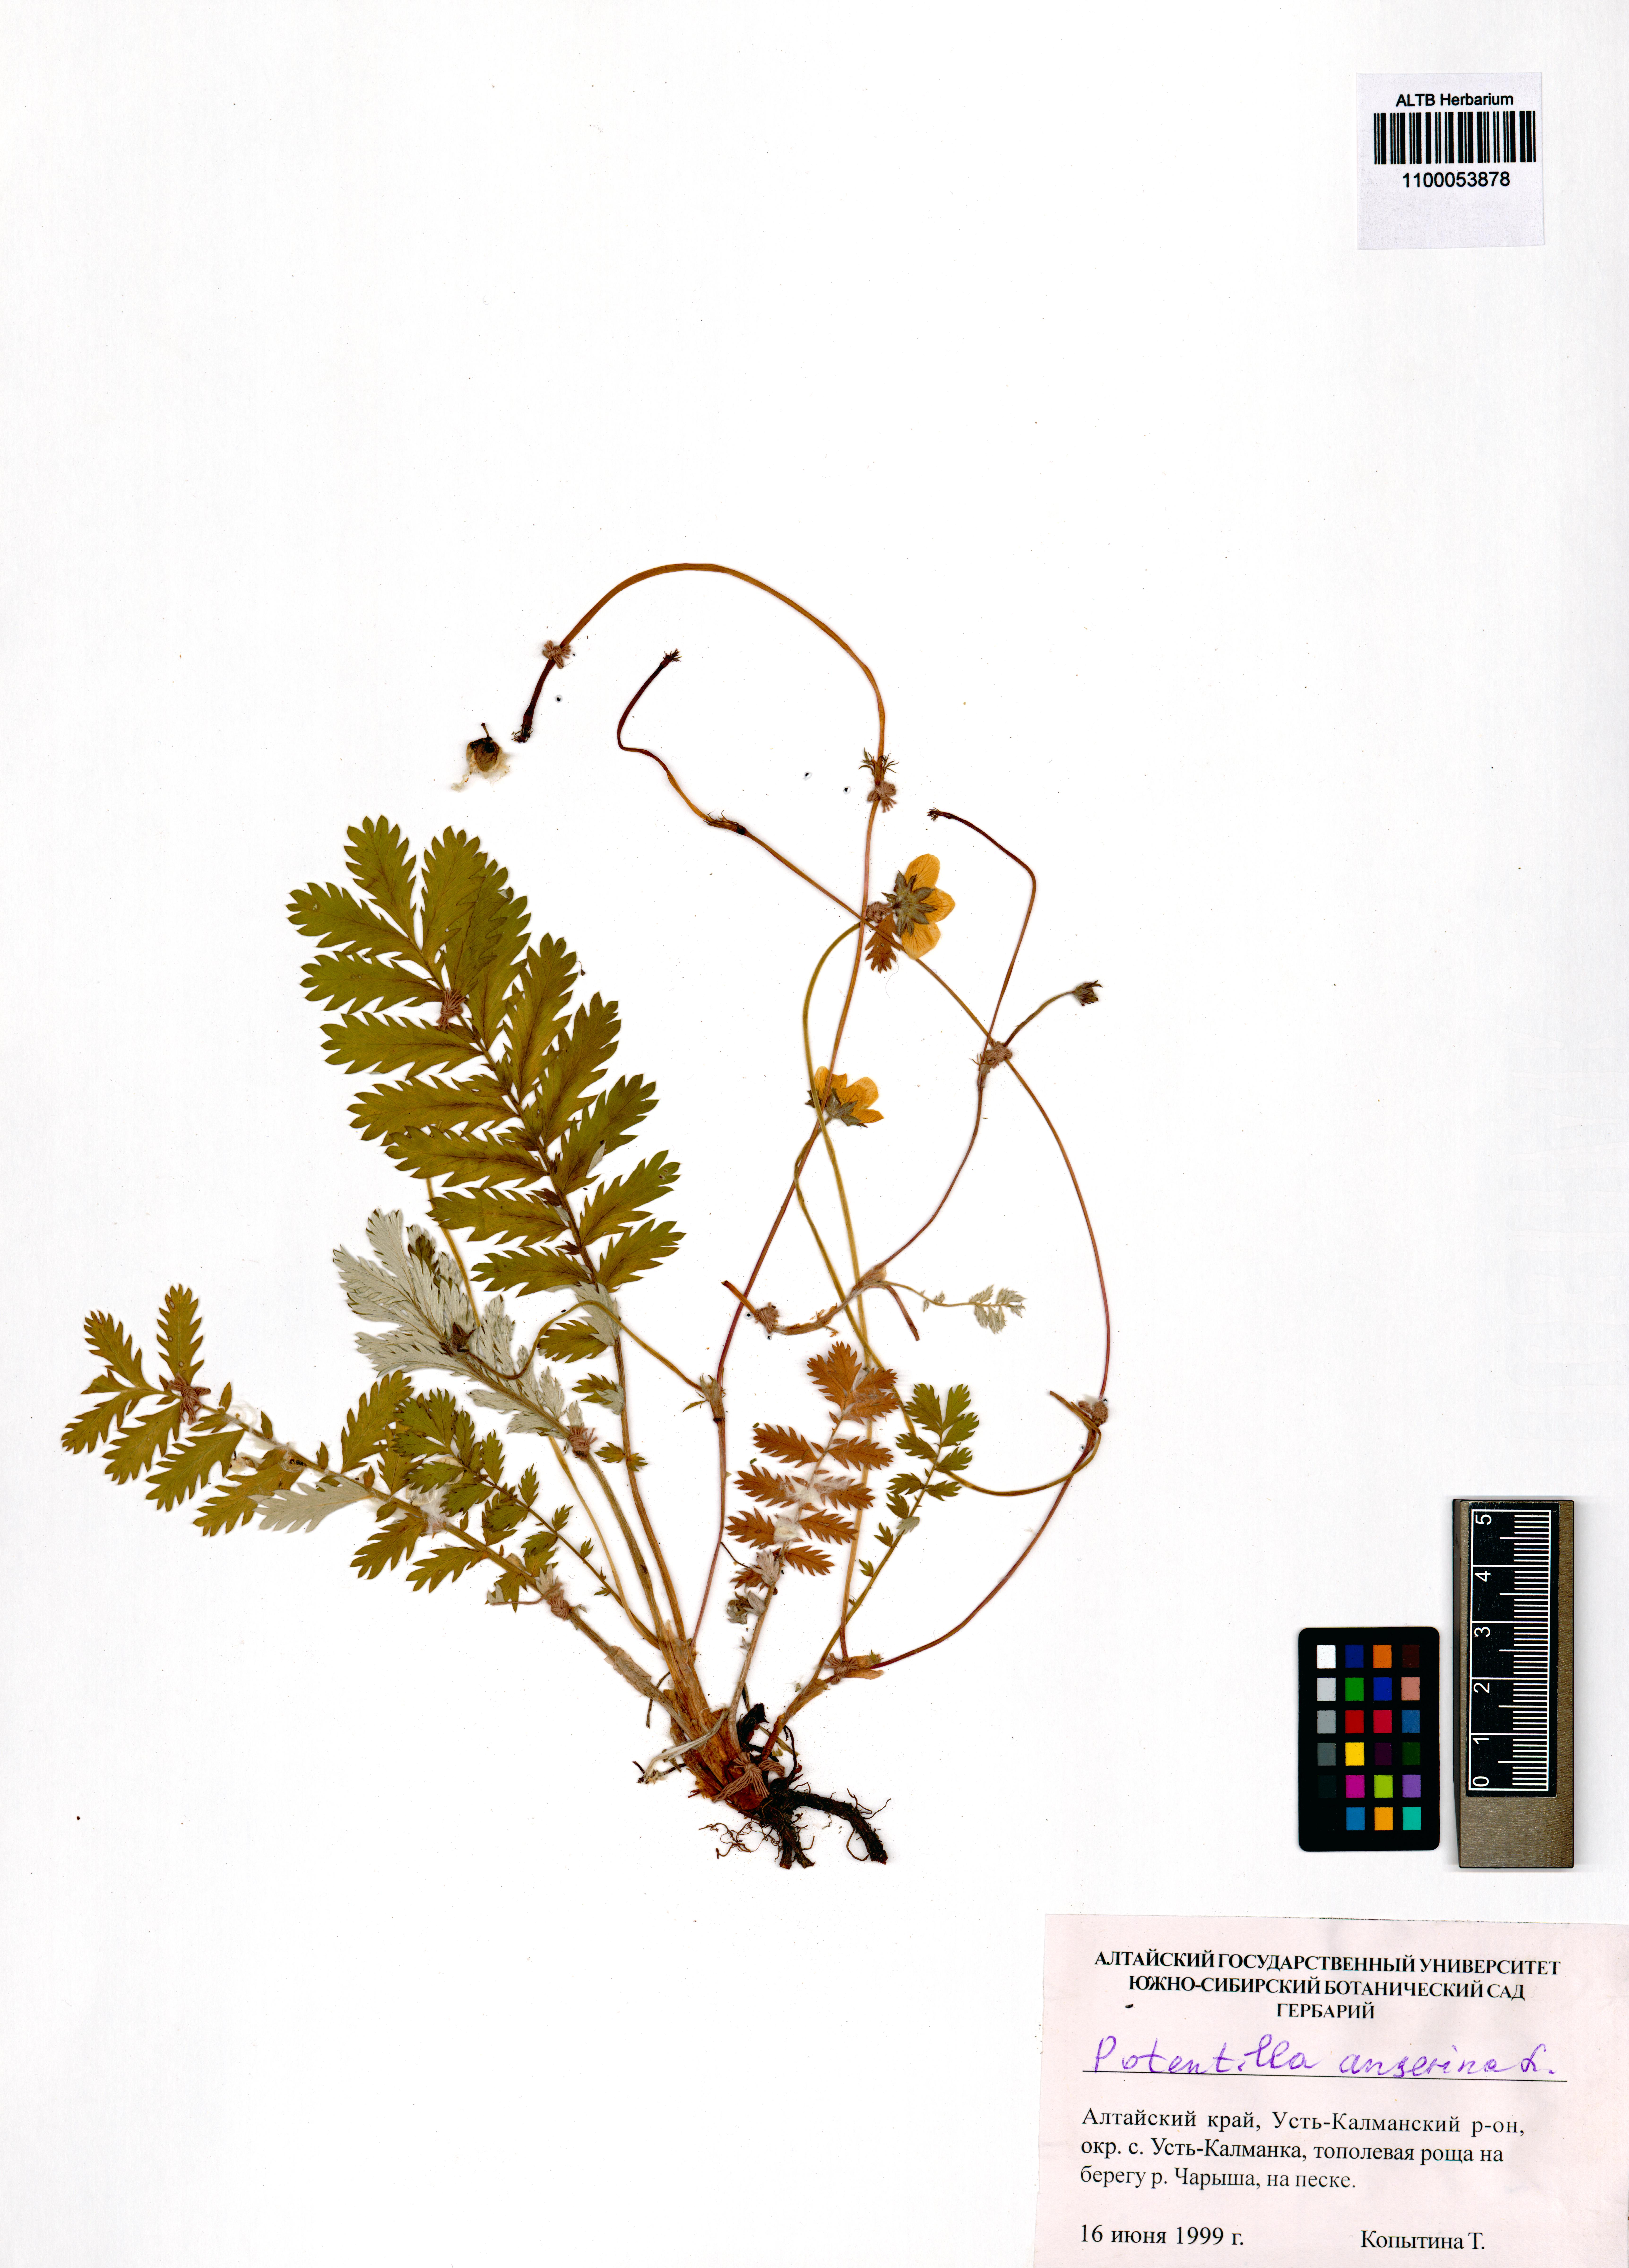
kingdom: Plantae
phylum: Tracheophyta
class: Magnoliopsida
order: Rosales
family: Rosaceae
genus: Argentina
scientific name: Argentina anserina
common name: Common silverweed
